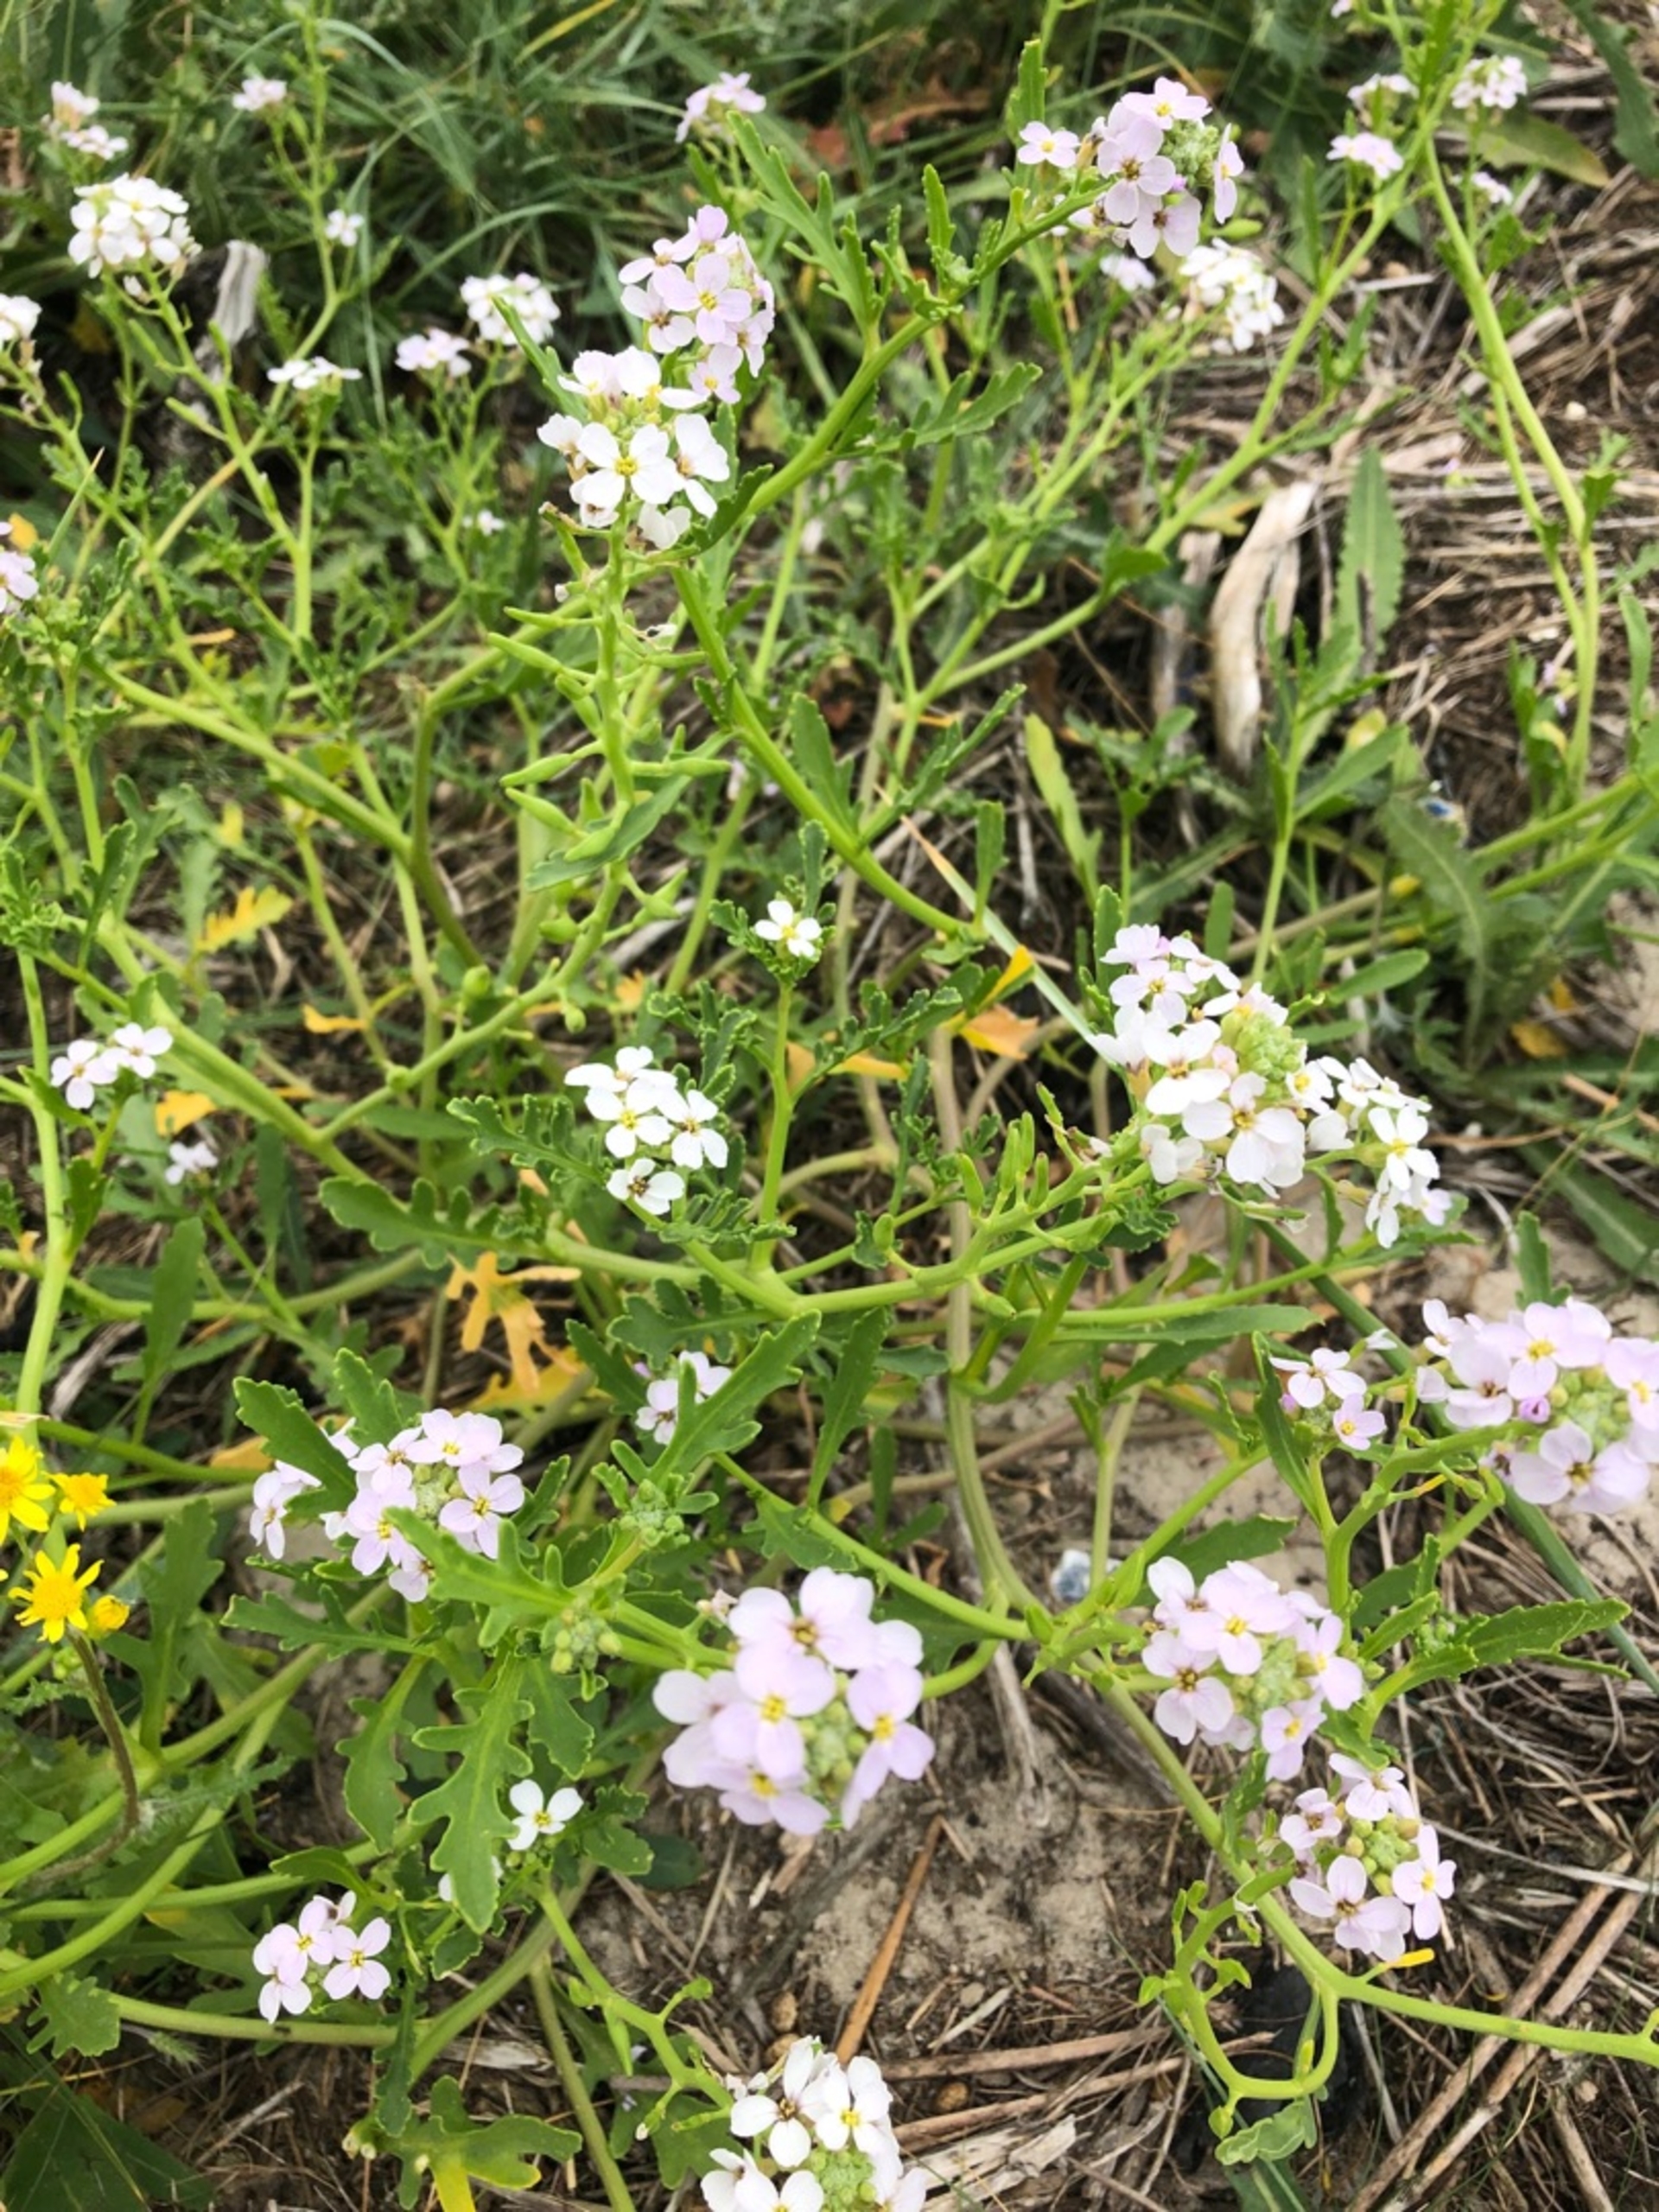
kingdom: Plantae
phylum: Tracheophyta
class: Magnoliopsida
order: Brassicales
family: Brassicaceae
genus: Cakile
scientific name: Cakile maritima
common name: Nordsø-strandsennep
